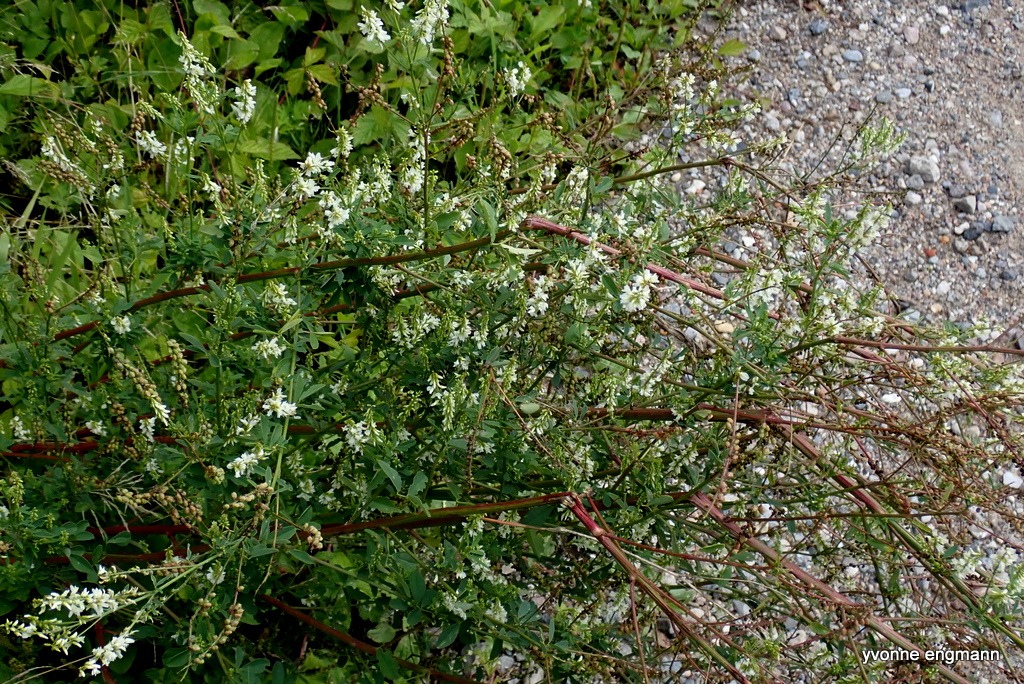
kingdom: Plantae
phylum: Tracheophyta
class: Magnoliopsida
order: Fabales
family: Fabaceae
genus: Melilotus
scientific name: Melilotus albus
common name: Hvid stenkløver
